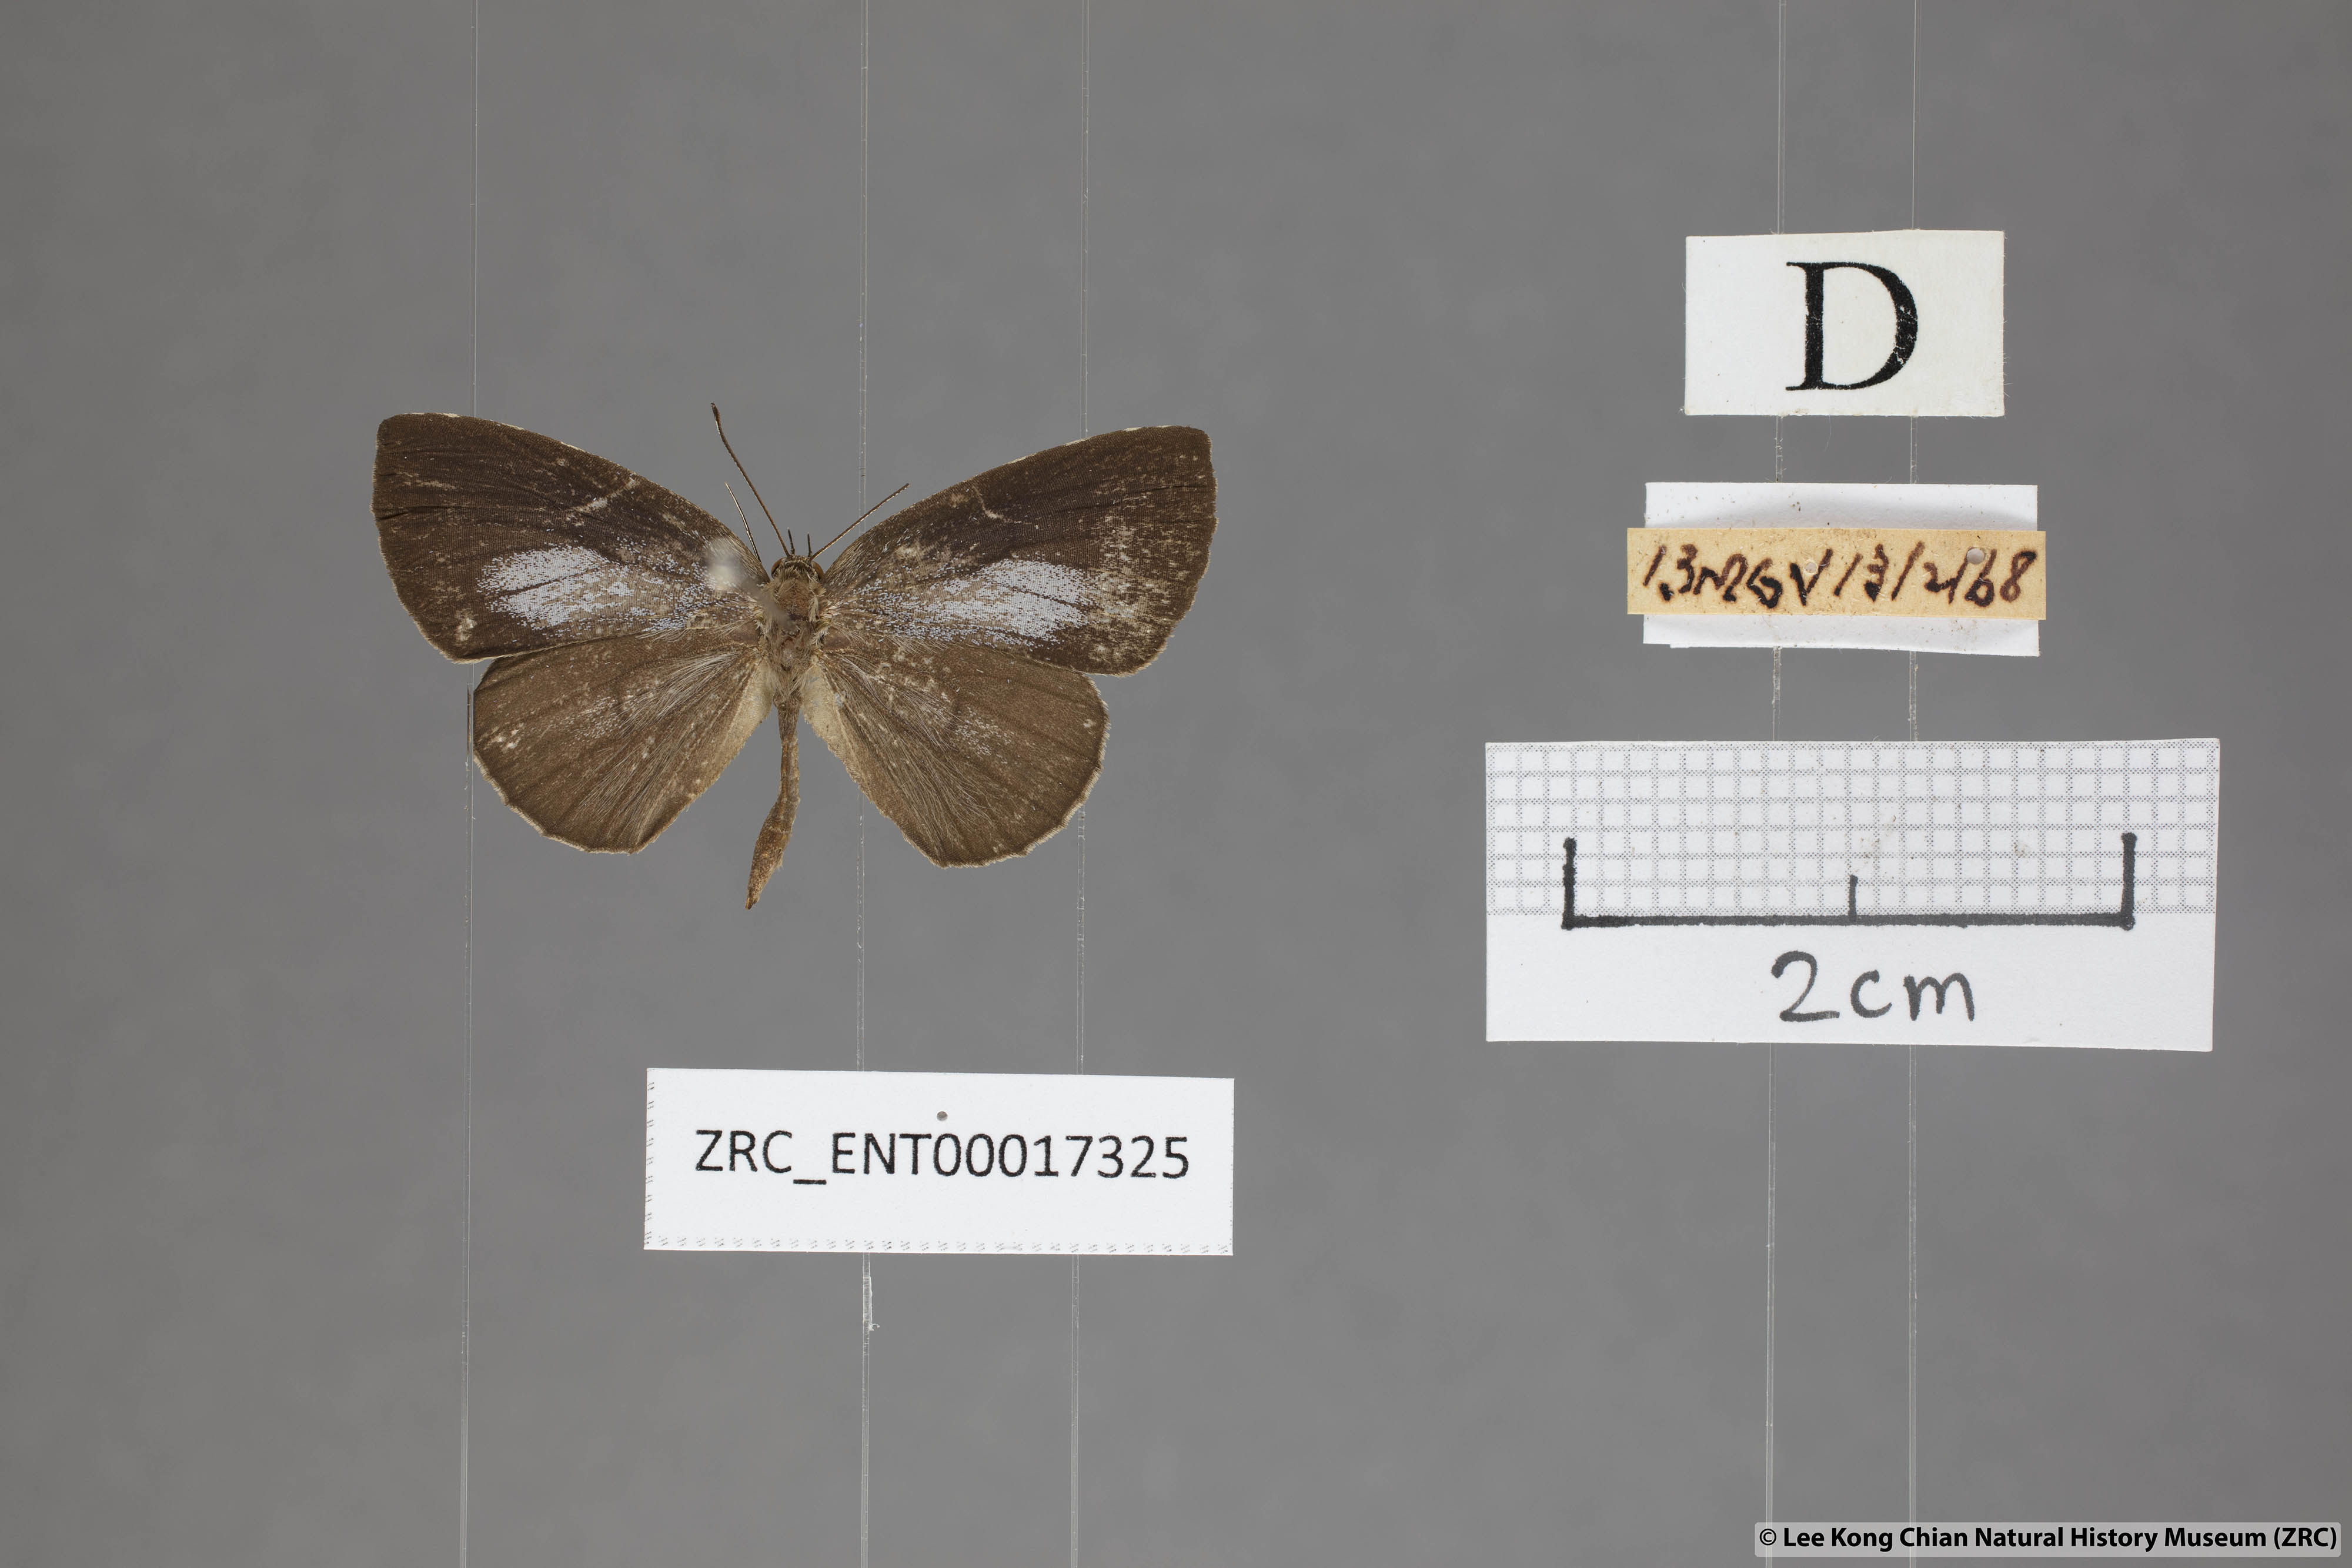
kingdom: Animalia
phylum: Arthropoda
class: Insecta
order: Lepidoptera
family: Lycaenidae
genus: Allotinus
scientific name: Allotinus subviolaceus
